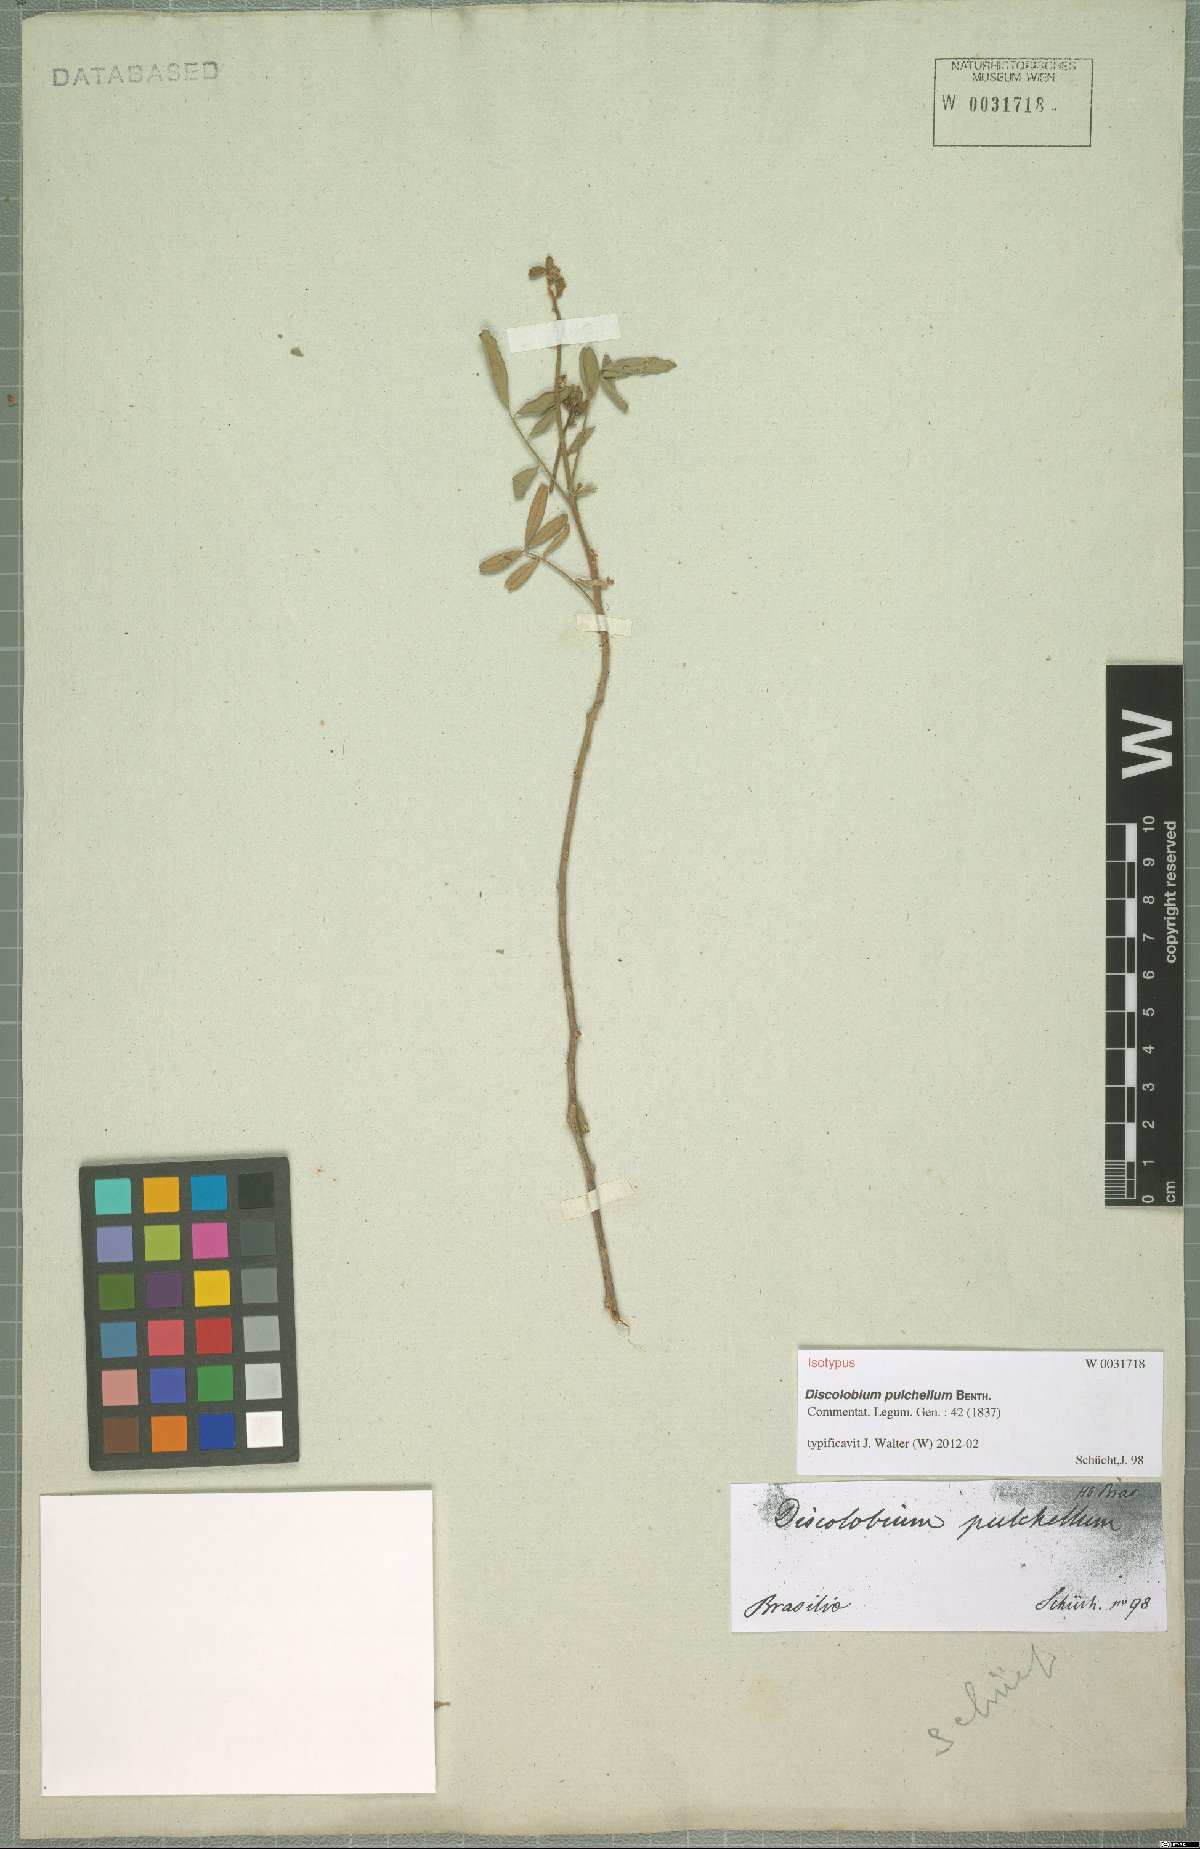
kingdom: Plantae
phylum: Tracheophyta
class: Magnoliopsida
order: Fabales
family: Fabaceae
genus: Discolobium
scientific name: Discolobium pulchellum
